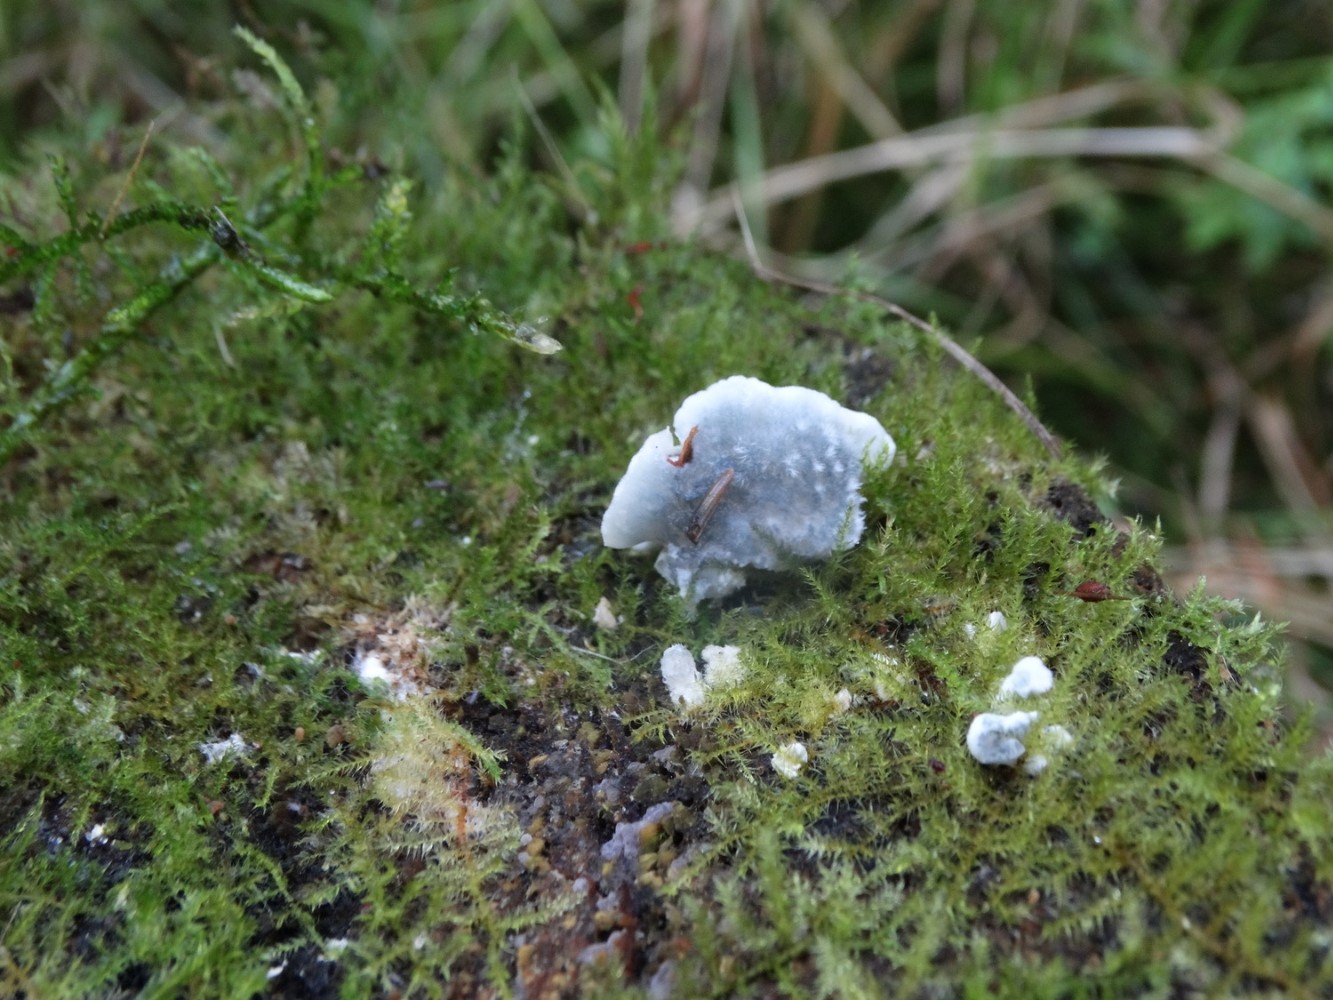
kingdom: Fungi
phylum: Basidiomycota
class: Agaricomycetes
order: Polyporales
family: Polyporaceae
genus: Cyanosporus
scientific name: Cyanosporus caesius
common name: blålig kødporesvamp
